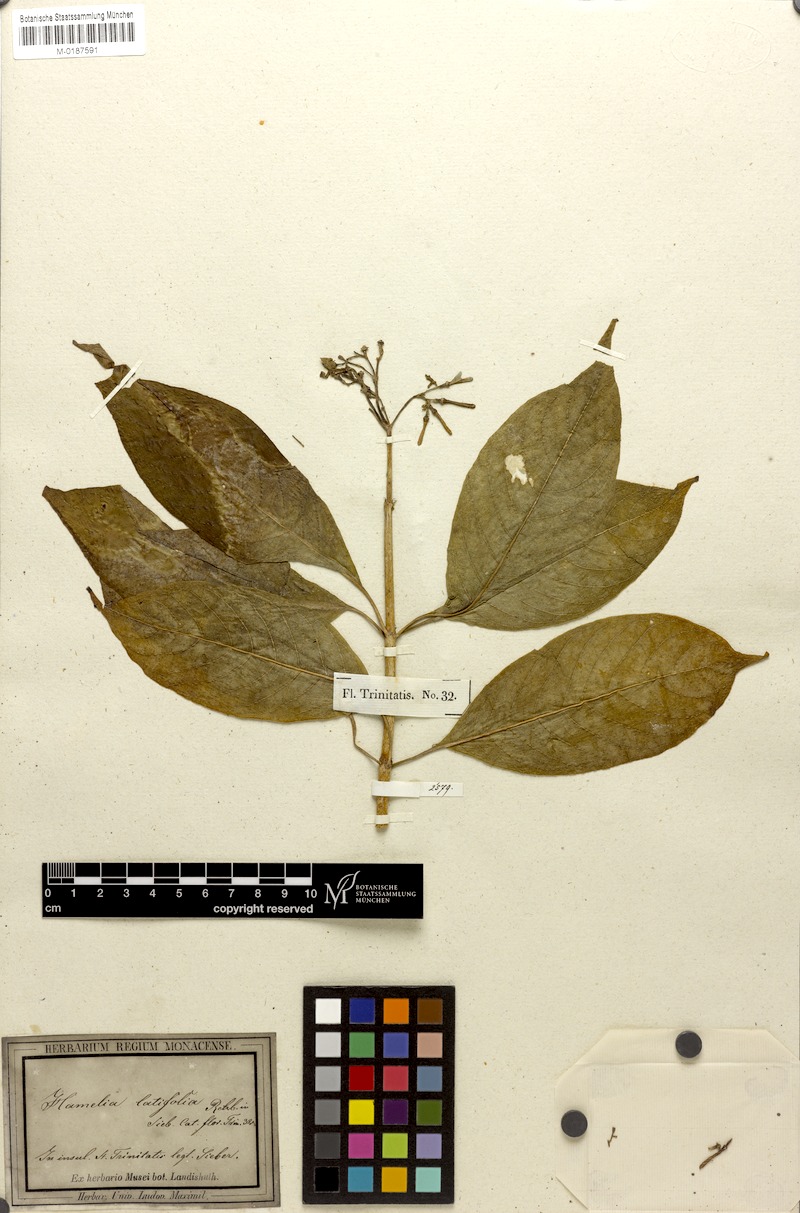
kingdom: Plantae
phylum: Tracheophyta
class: Magnoliopsida
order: Gentianales
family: Rubiaceae
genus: Hamelia
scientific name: Hamelia patens
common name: Redhead
